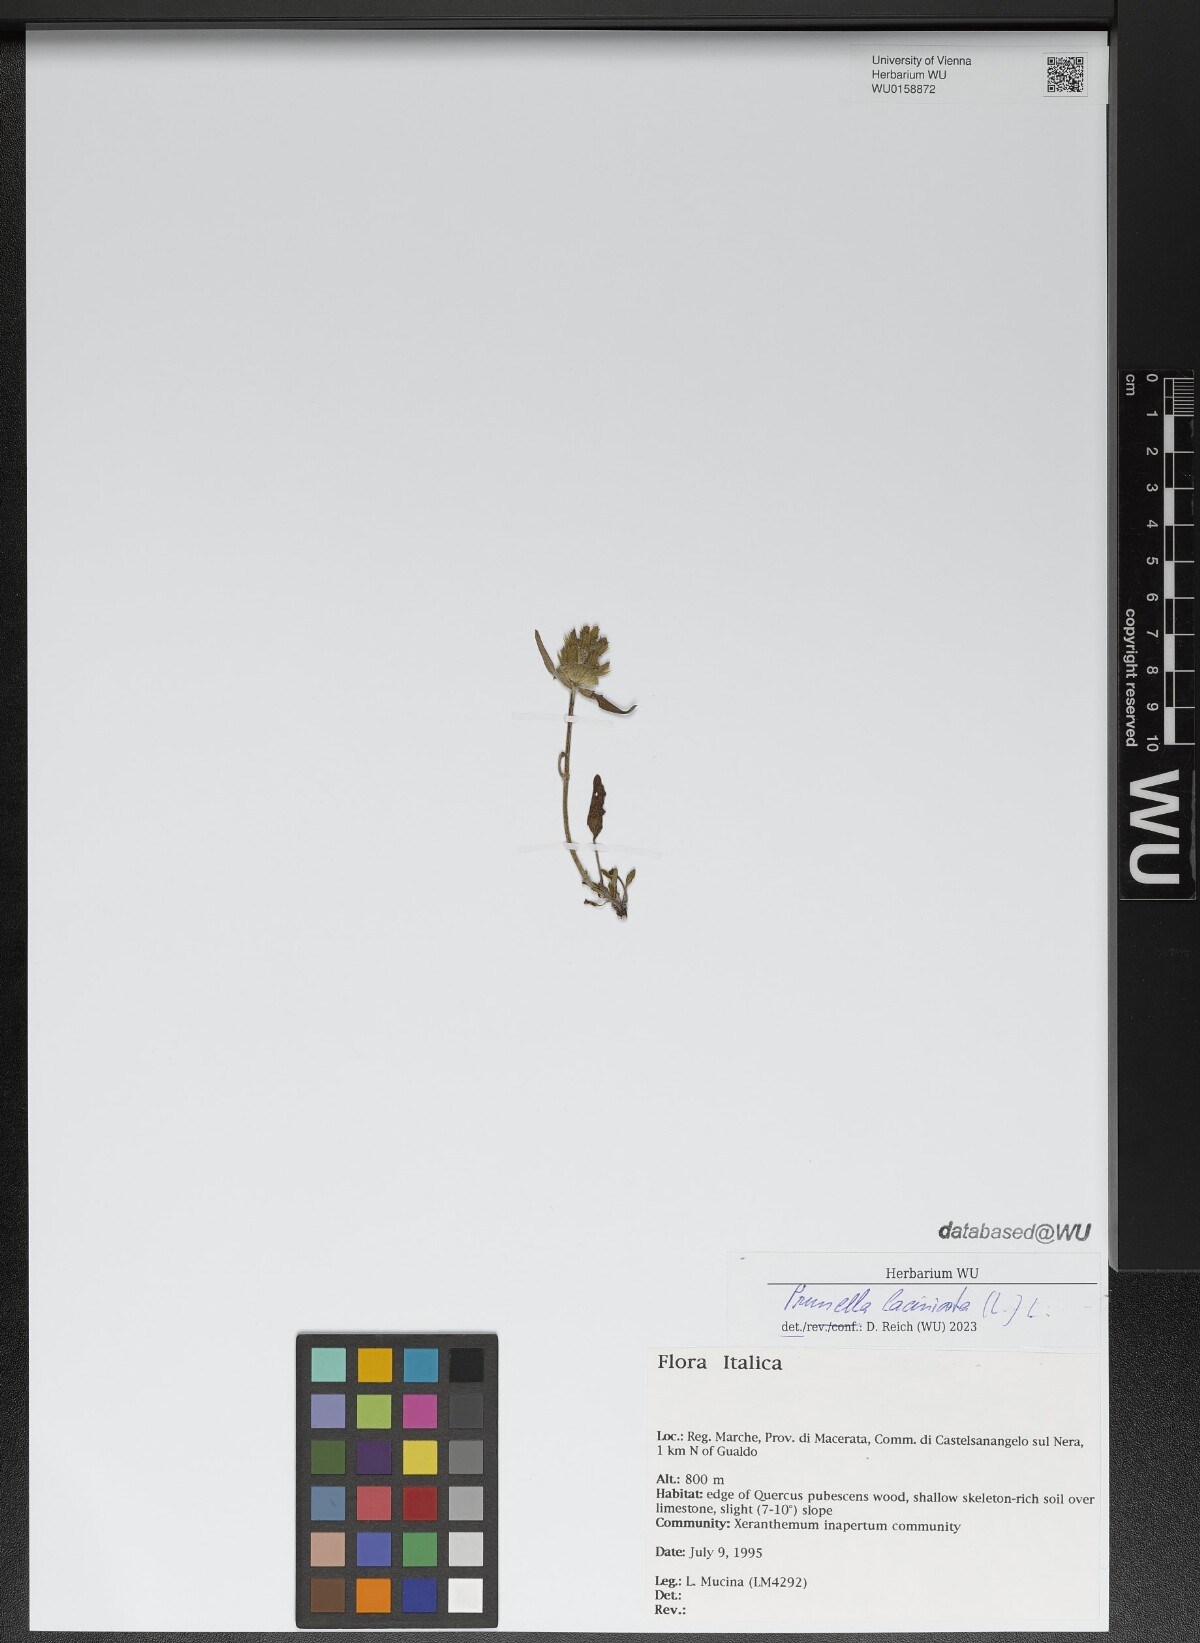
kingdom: Plantae
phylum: Tracheophyta
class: Magnoliopsida
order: Lamiales
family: Lamiaceae
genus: Prunella
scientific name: Prunella laciniata
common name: Cut-leaved selfheal
